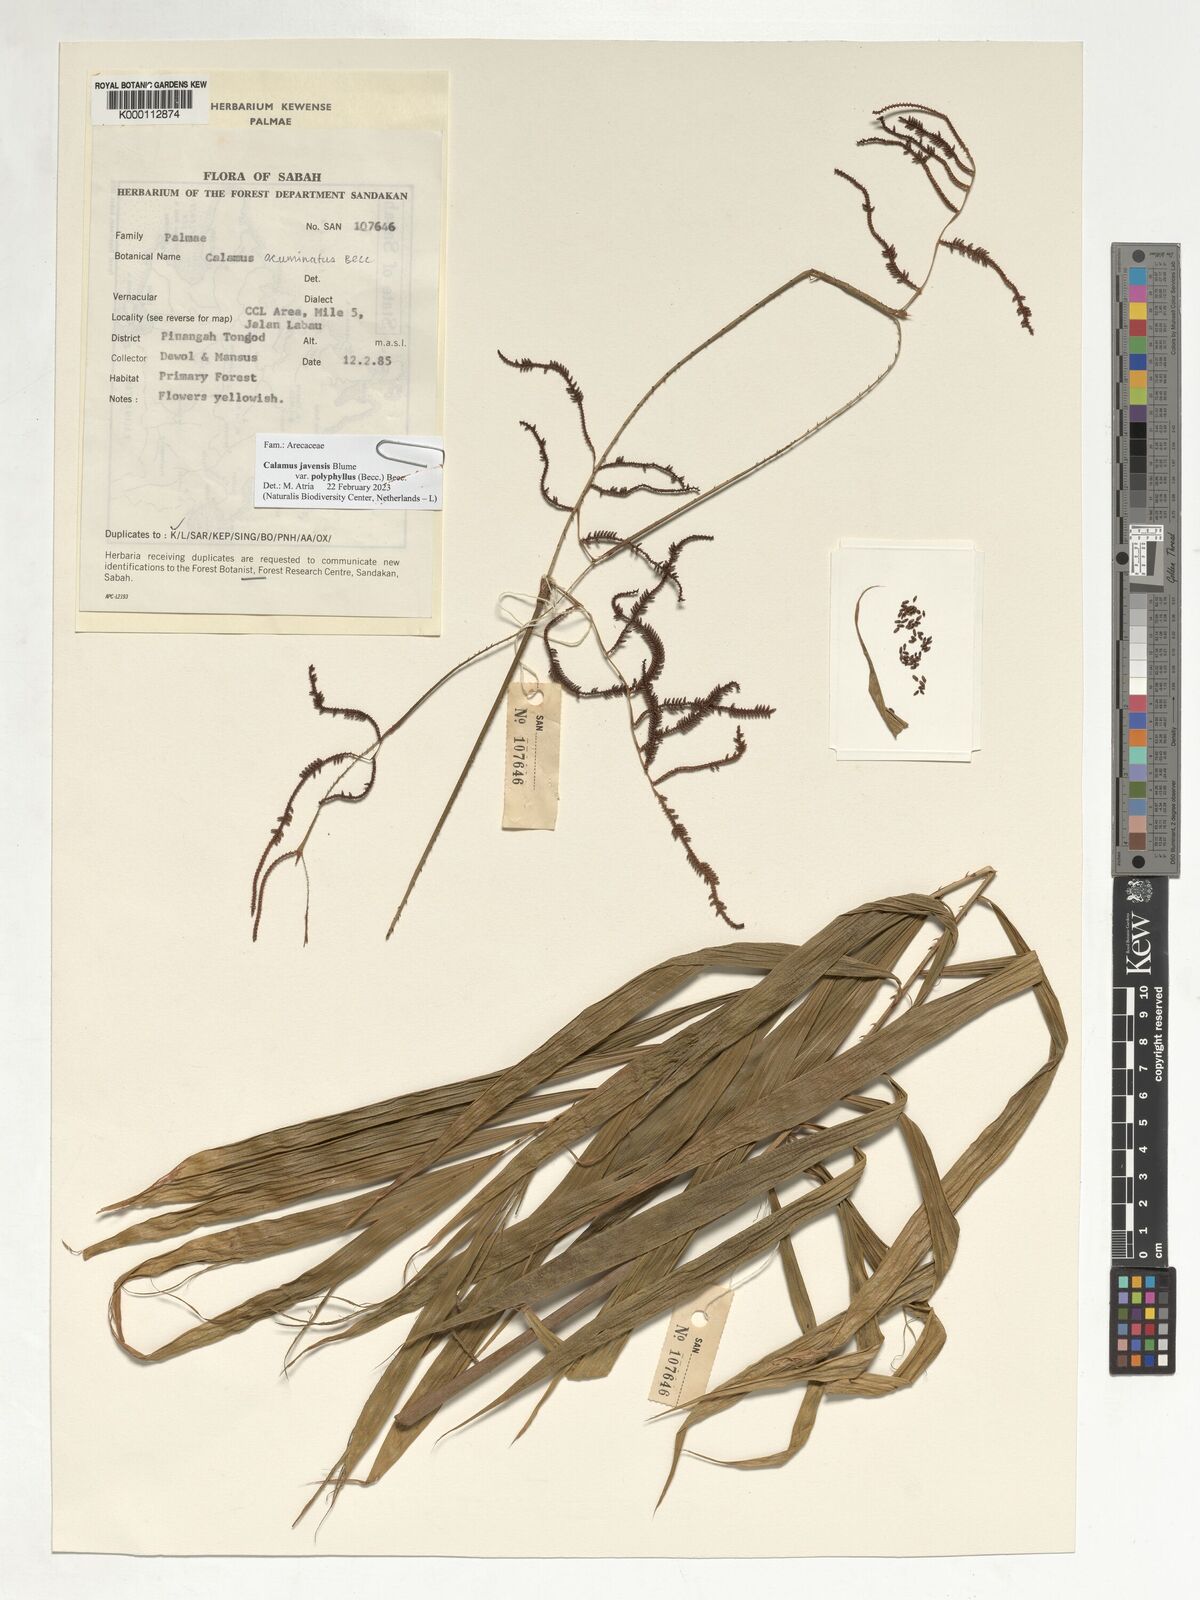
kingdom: Plantae
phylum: Tracheophyta
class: Liliopsida
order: Arecales
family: Arecaceae
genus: Calamus
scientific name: Calamus javensis
